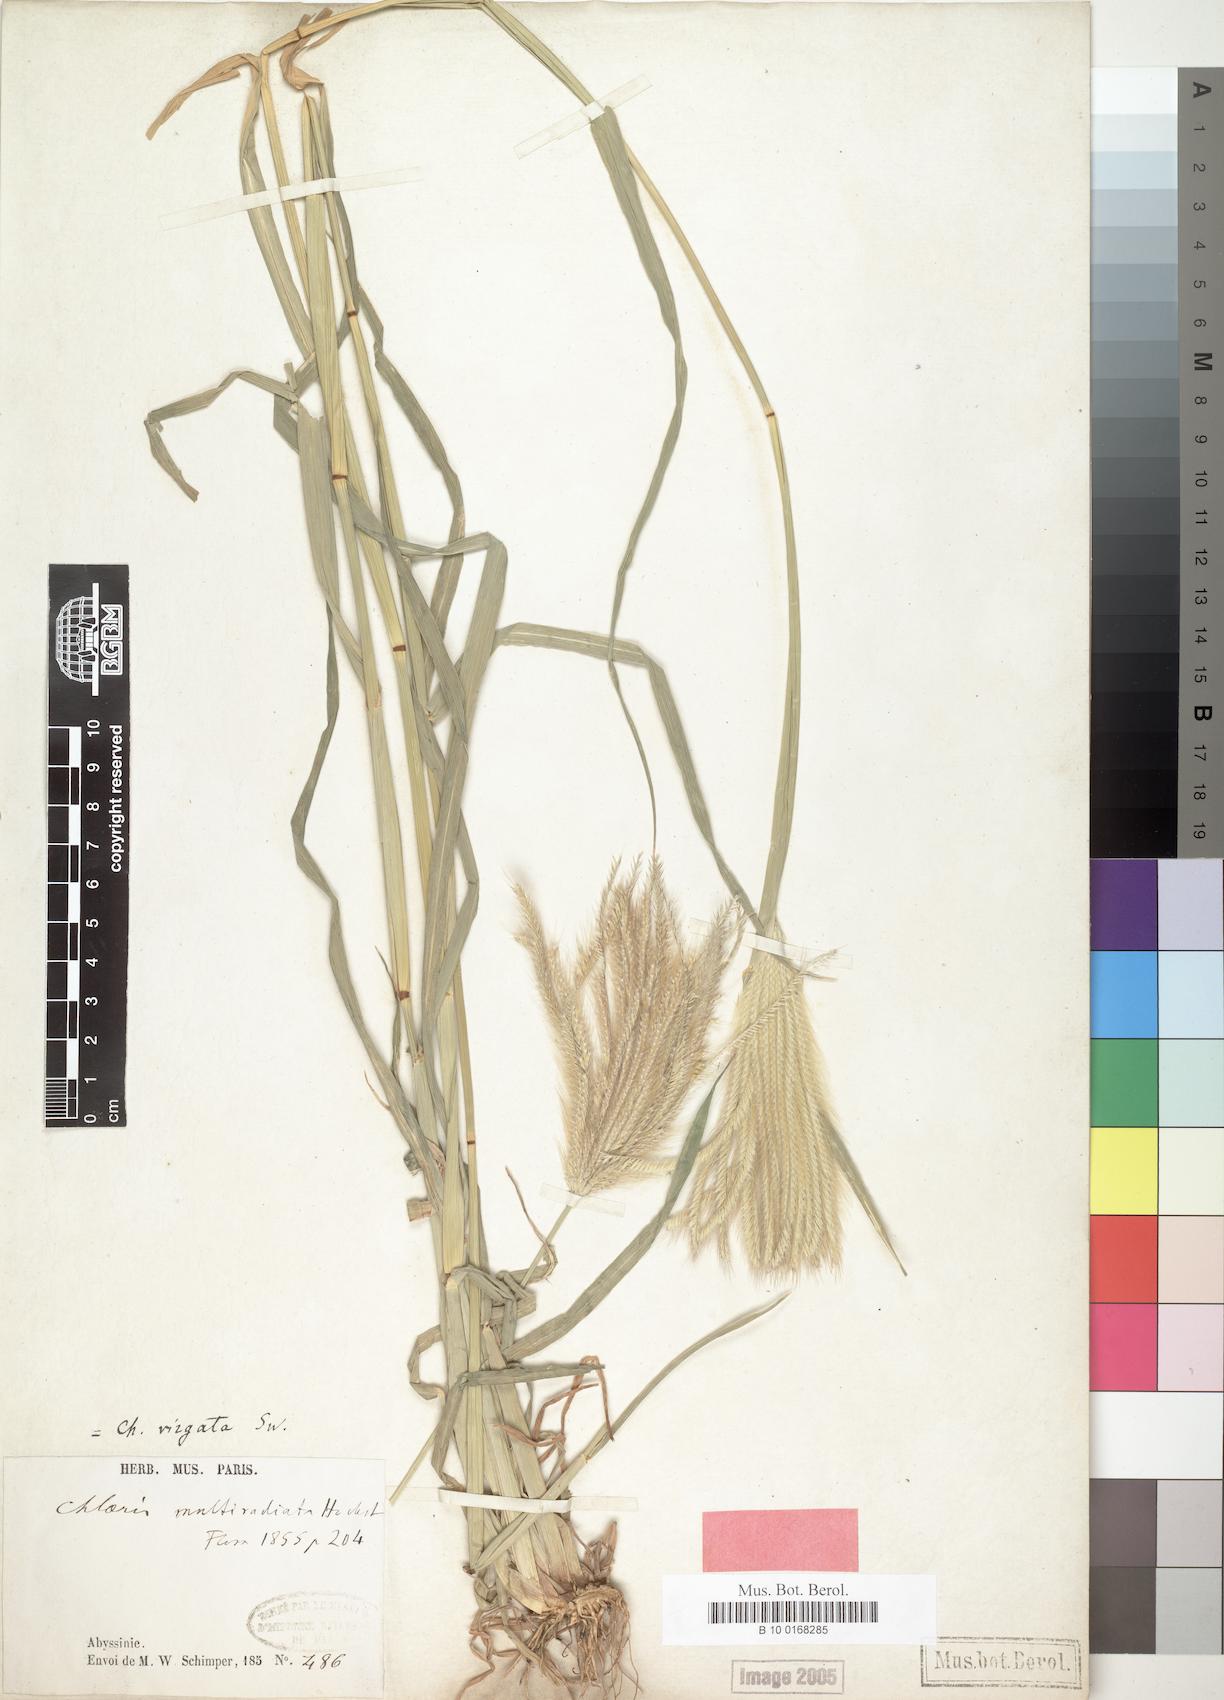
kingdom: Plantae
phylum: Tracheophyta
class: Liliopsida
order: Poales
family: Poaceae
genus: Chloris
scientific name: Chloris virgata
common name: Feathery rhodes-grass
